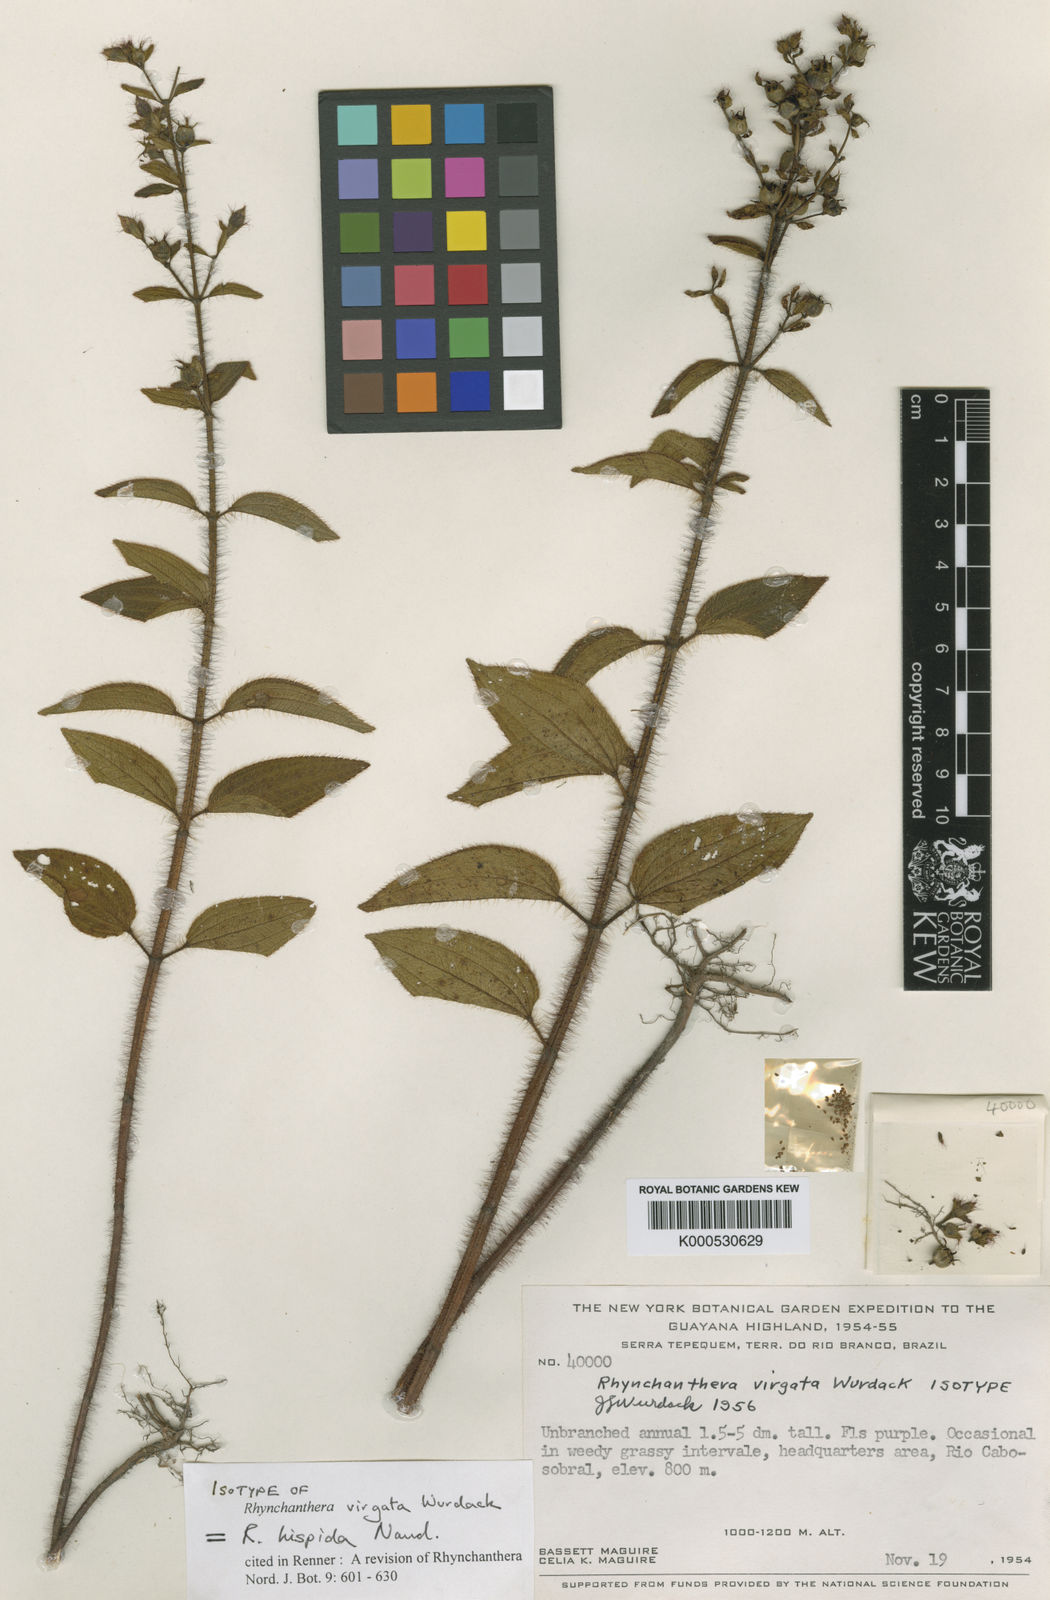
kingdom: Plantae
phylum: Tracheophyta
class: Magnoliopsida
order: Myrtales
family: Melastomataceae
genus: Rhynchanthera
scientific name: Rhynchanthera hispida
